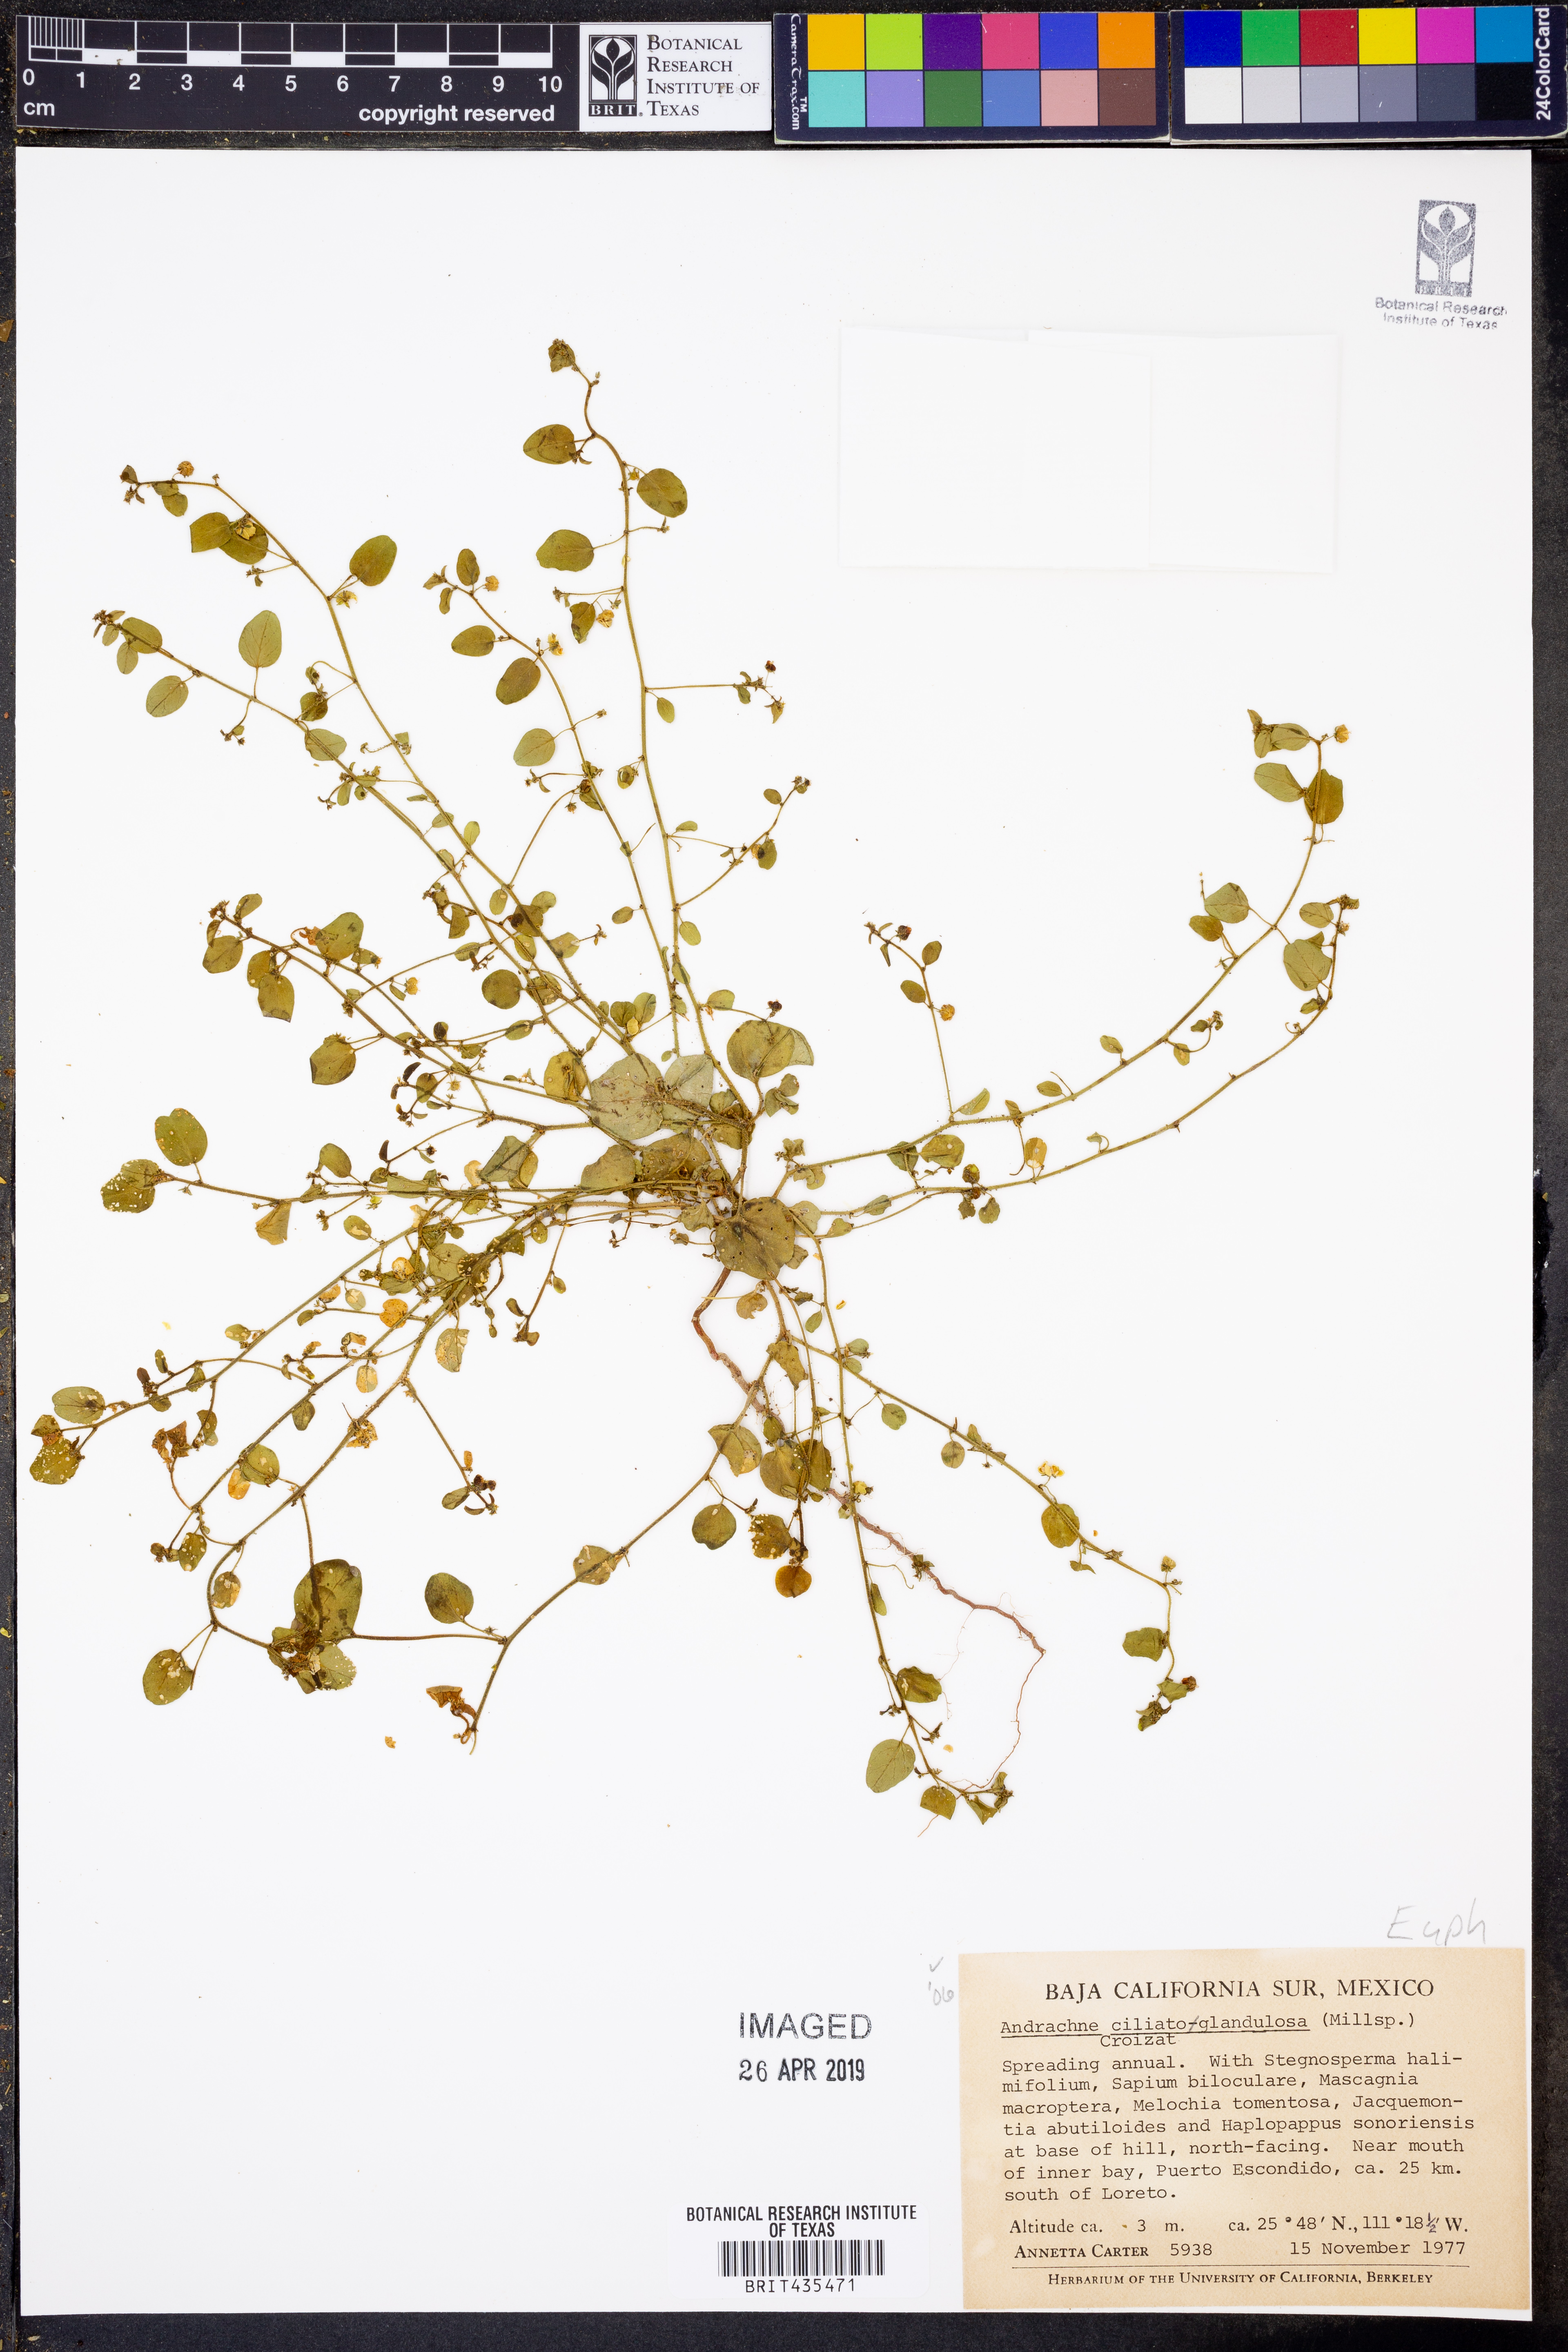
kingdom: Plantae
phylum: Tracheophyta
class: Magnoliopsida
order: Malpighiales
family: Phyllanthaceae
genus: Andrachne
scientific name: Andrachne microphylla
